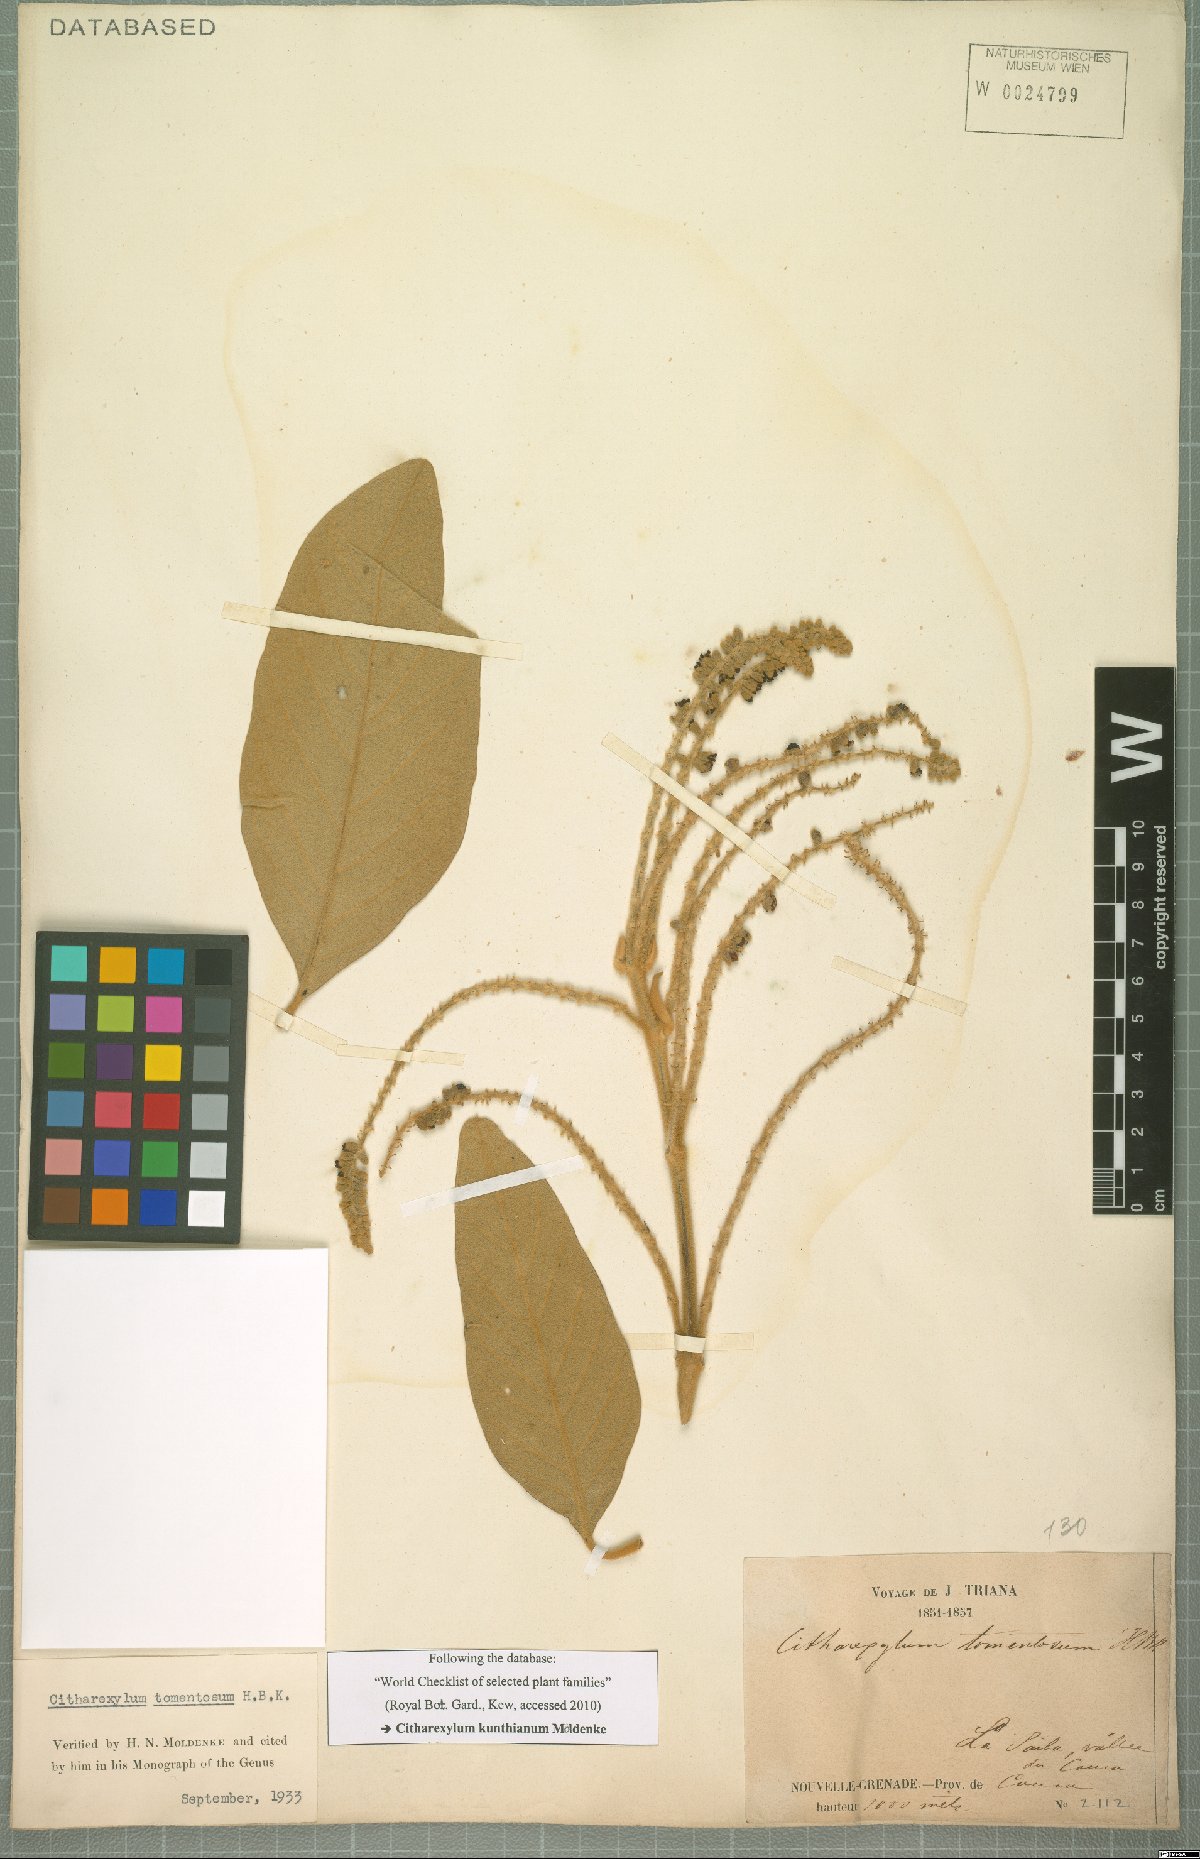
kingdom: Plantae
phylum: Tracheophyta
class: Magnoliopsida
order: Lamiales
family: Verbenaceae
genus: Citharexylum
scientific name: Citharexylum kunthianum
